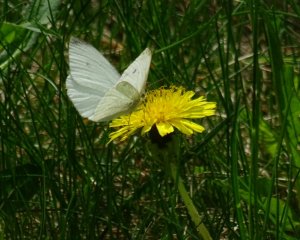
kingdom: Animalia
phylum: Arthropoda
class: Insecta
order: Lepidoptera
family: Pieridae
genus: Pieris
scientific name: Pieris rapae
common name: Cabbage White
